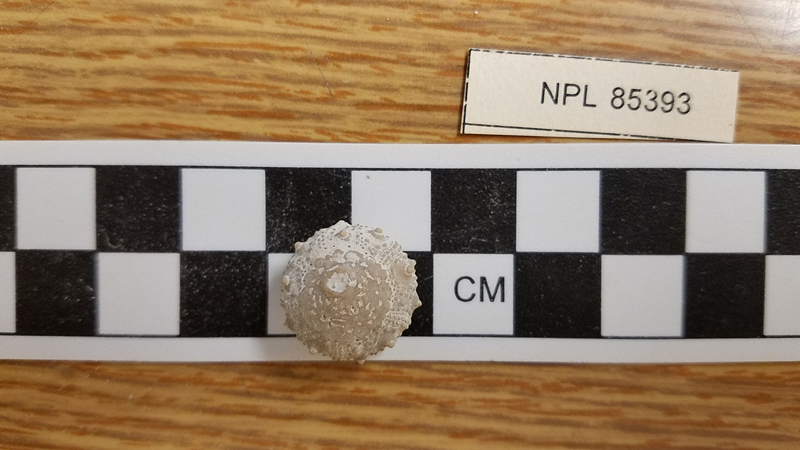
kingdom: Animalia
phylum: Echinodermata
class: Echinoidea
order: Salenioida
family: Saleniidae
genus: Salenia
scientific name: Salenia mexicana
